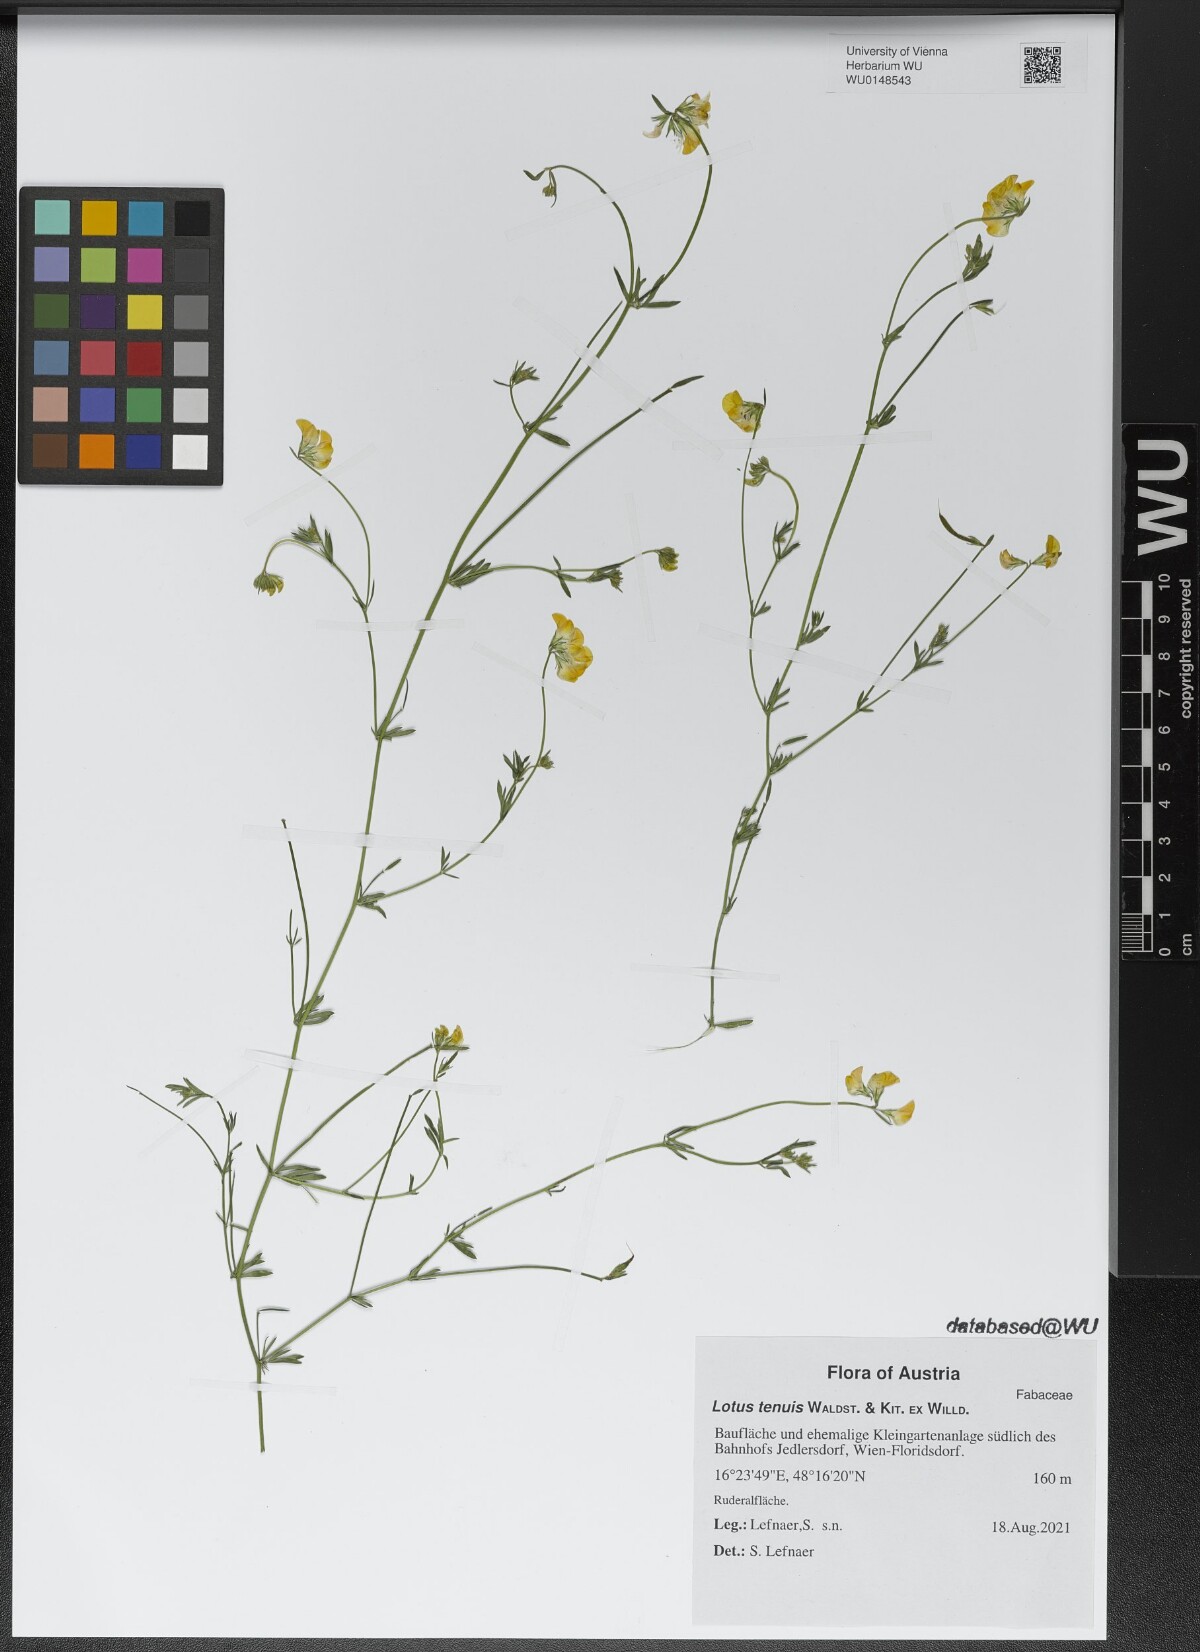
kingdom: Plantae
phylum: Tracheophyta
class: Magnoliopsida
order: Fabales
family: Fabaceae
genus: Lotus
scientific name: Lotus tenuis
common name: Narrow-leaved bird's-foot-trefoil
